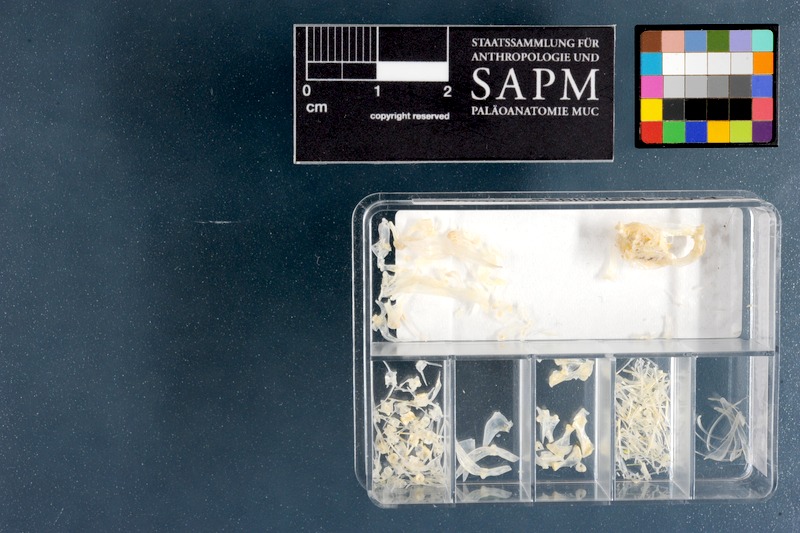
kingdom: Animalia
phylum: Chordata
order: Perciformes
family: Blenniidae
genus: Parablennius
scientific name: Parablennius cornutus
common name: Horned blenny
